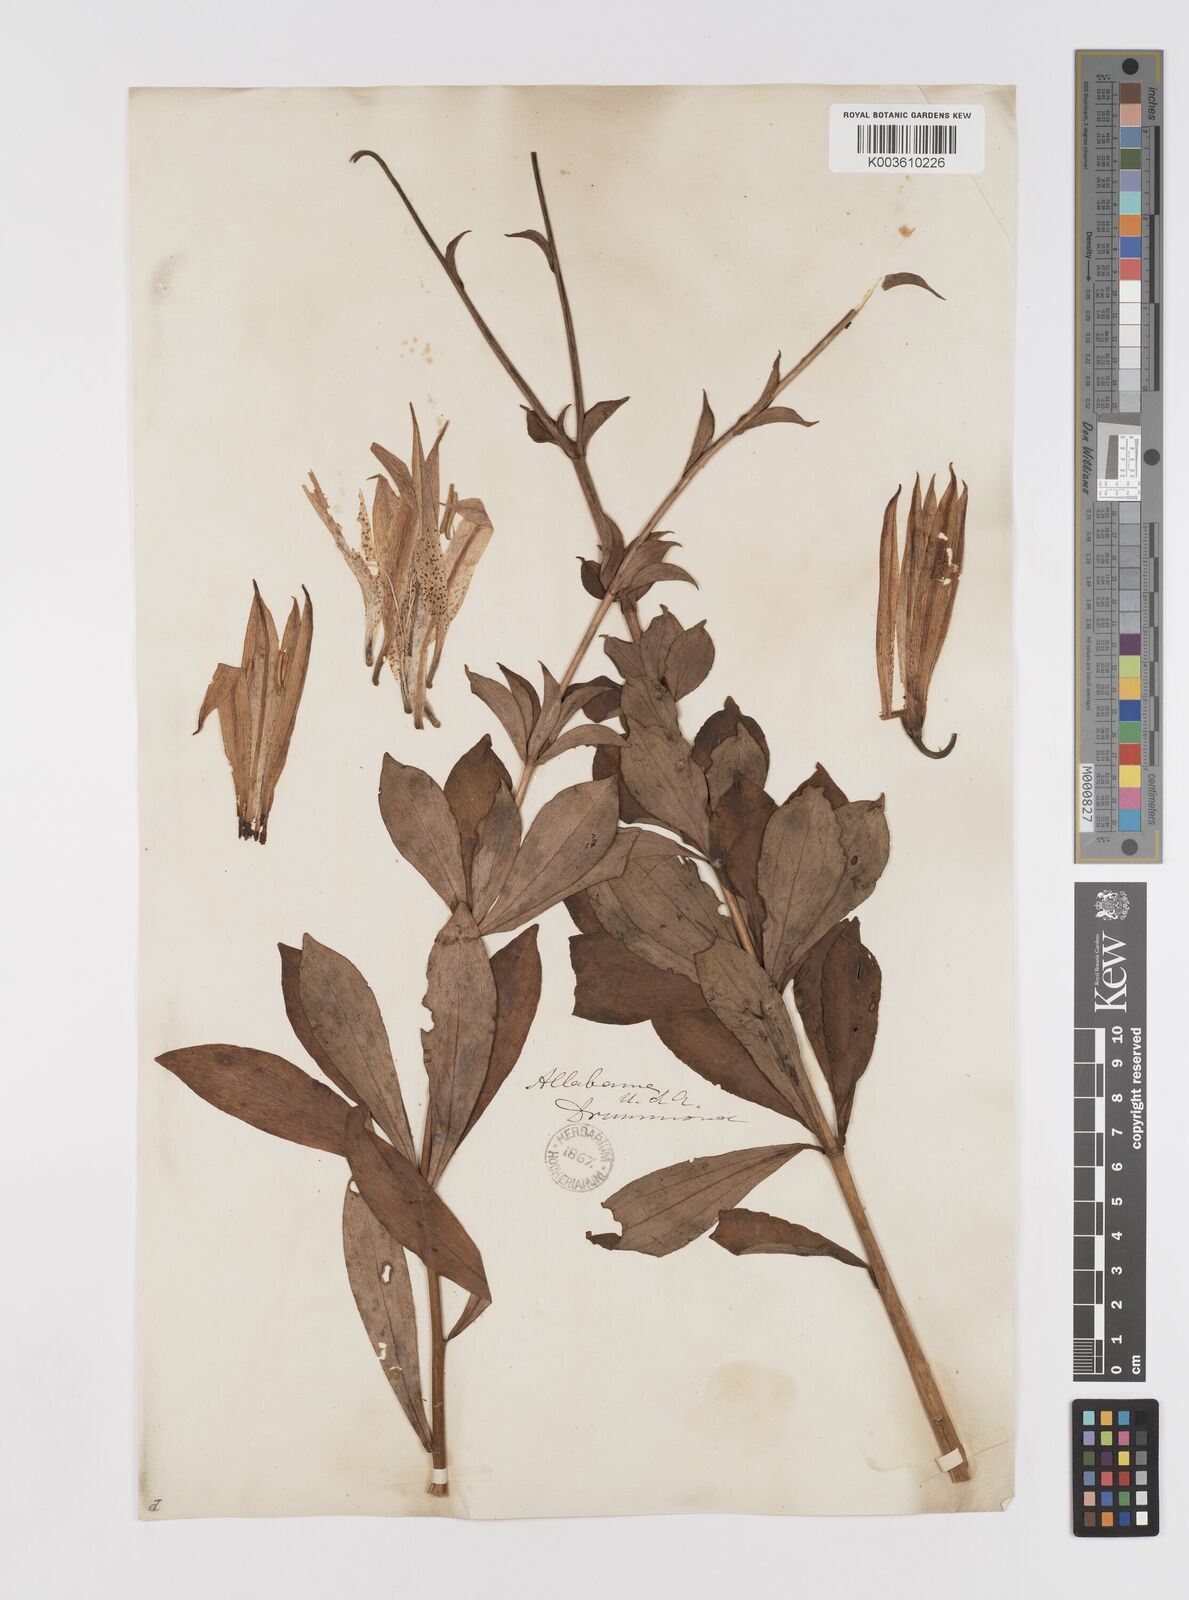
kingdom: Plantae
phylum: Tracheophyta
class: Liliopsida
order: Liliales
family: Liliaceae
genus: Lilium
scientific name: Lilium canadense
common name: Canada lily
